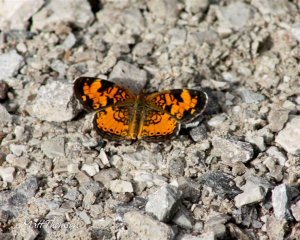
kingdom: Animalia
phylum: Arthropoda
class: Insecta
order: Lepidoptera
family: Nymphalidae
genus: Phyciodes
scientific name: Phyciodes
